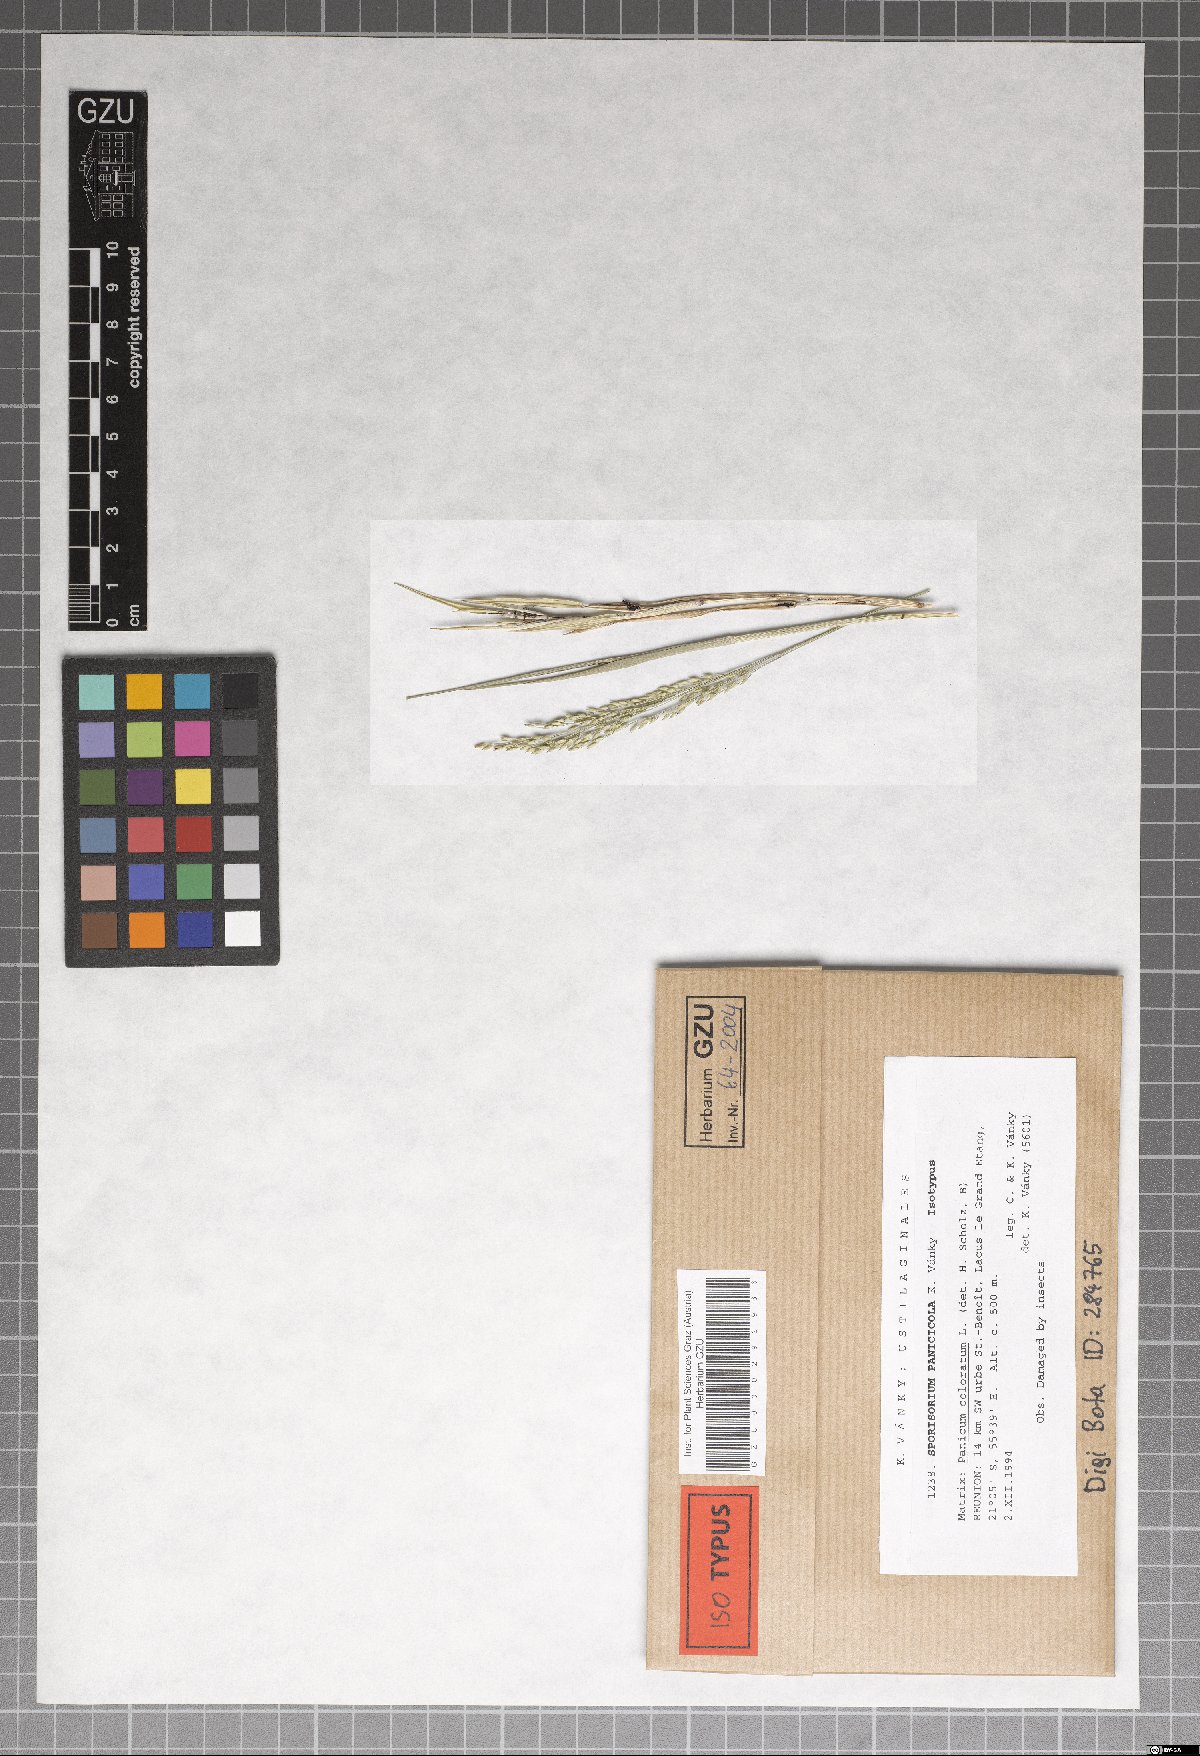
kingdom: Fungi
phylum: Basidiomycota
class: Ustilaginomycetes
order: Ustilaginales
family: Ustilaginaceae
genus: Anthracocystis
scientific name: Anthracocystis panicicola
